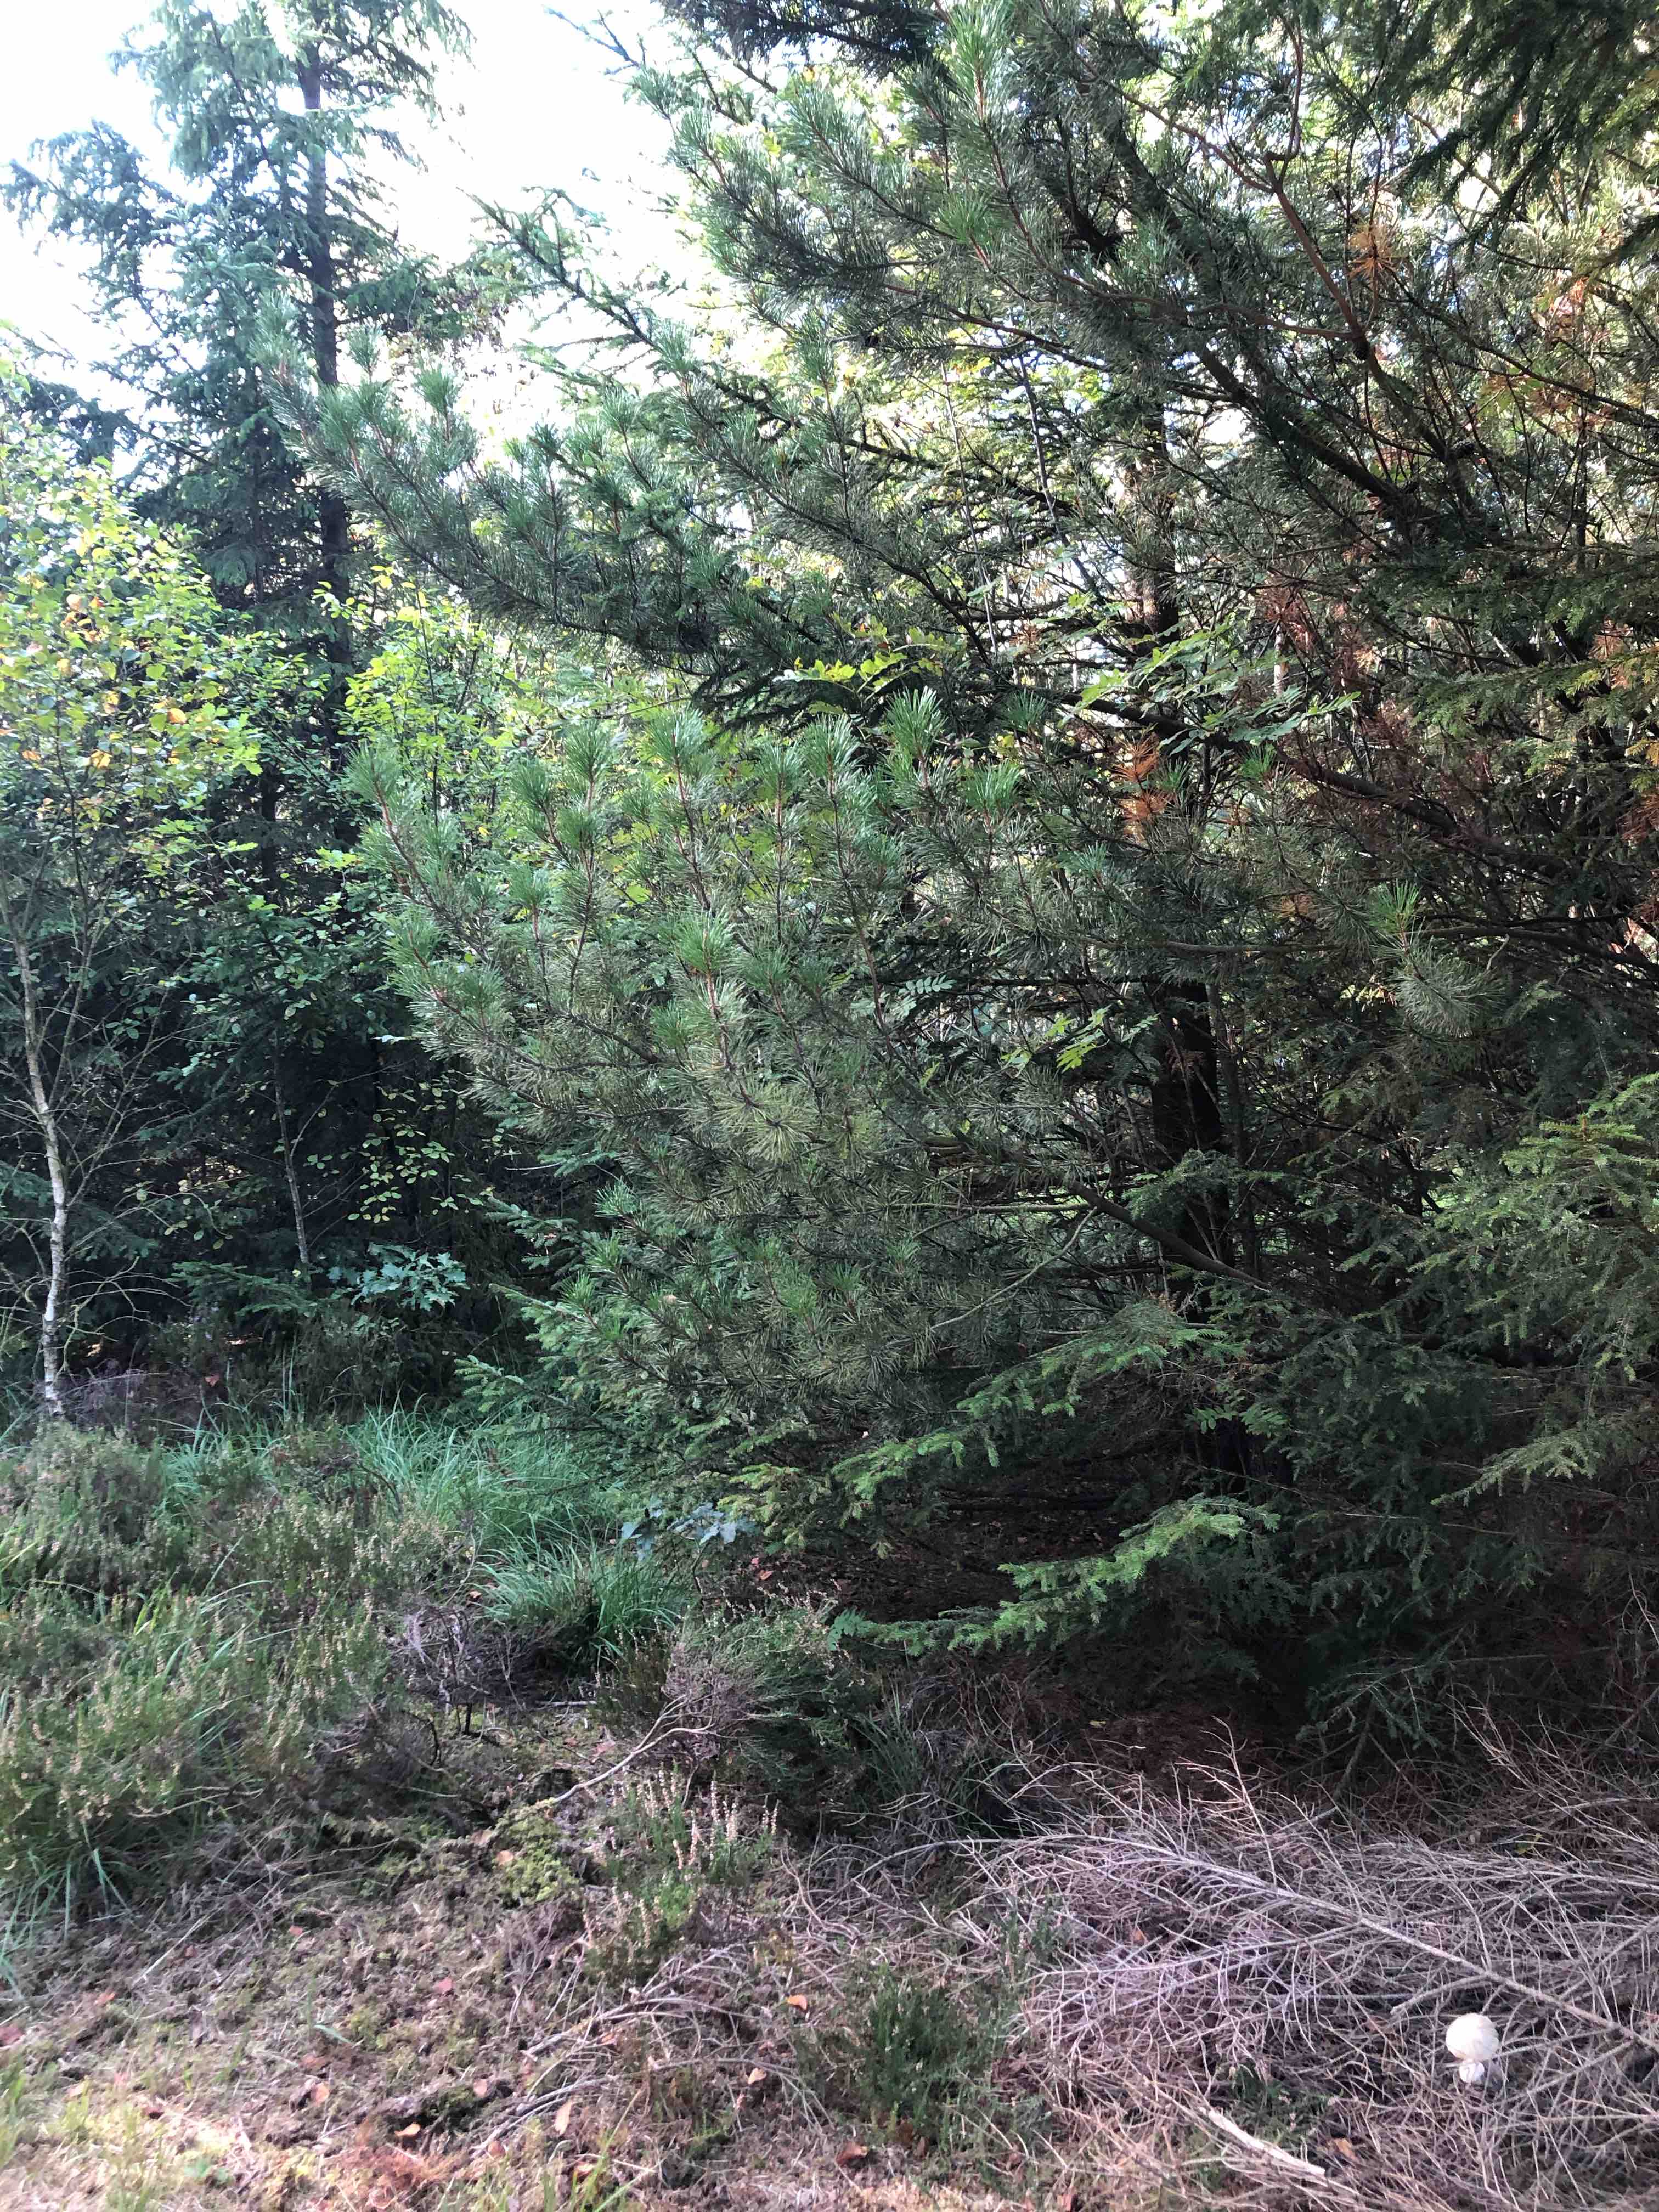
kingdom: Fungi
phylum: Basidiomycota
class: Agaricomycetes
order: Boletales
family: Boletaceae
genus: Leccinum
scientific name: Leccinum scabrum
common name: hvid skælrørhat
